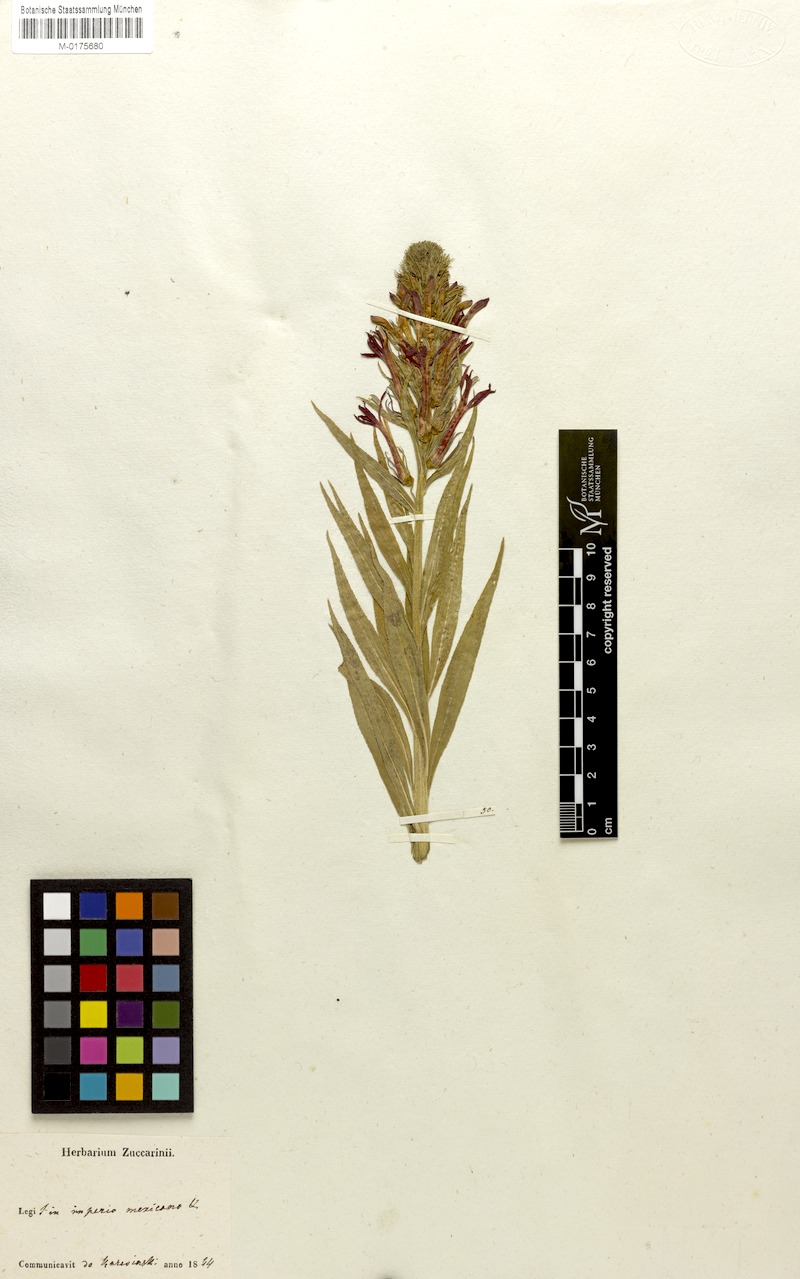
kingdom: Plantae
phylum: Tracheophyta
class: Magnoliopsida
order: Asterales
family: Campanulaceae
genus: Lobelia
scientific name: Lobelia cardinalis
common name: Cardinal flower
